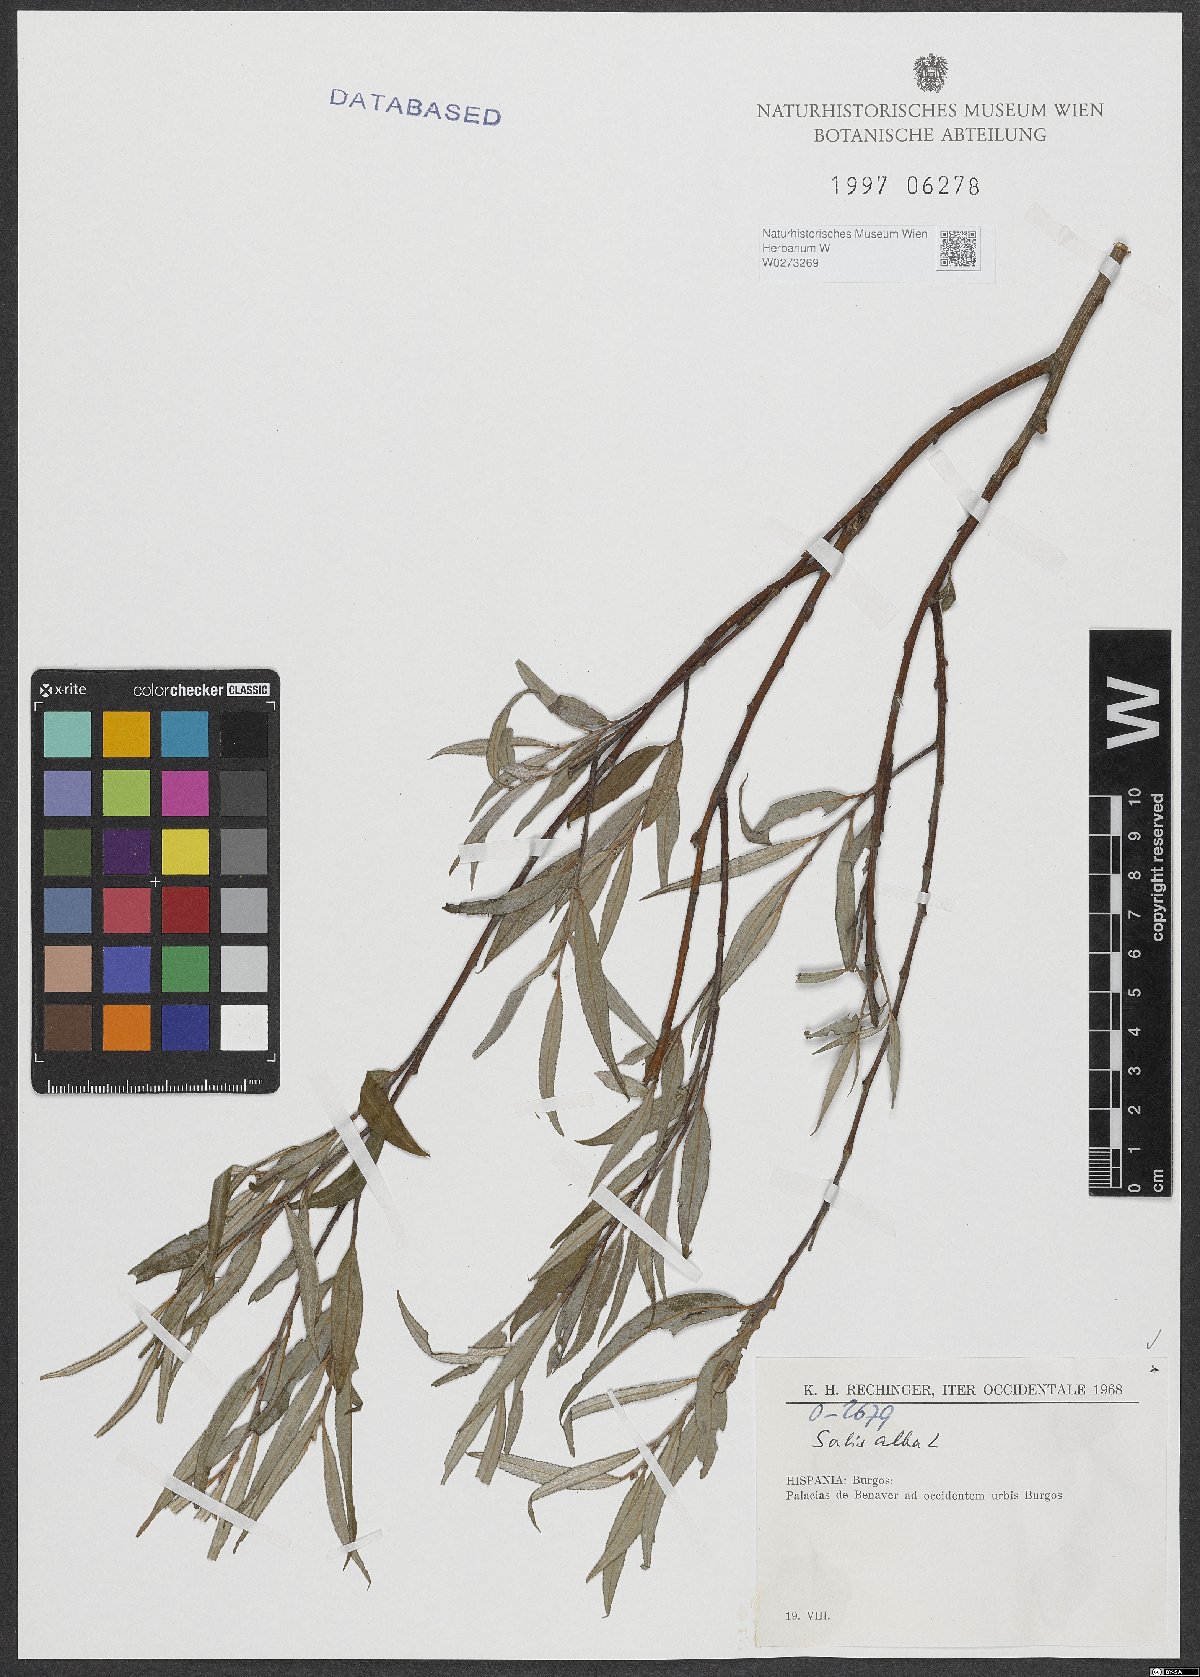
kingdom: Plantae
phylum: Tracheophyta
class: Magnoliopsida
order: Malpighiales
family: Salicaceae
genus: Salix
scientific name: Salix alba
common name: White willow
